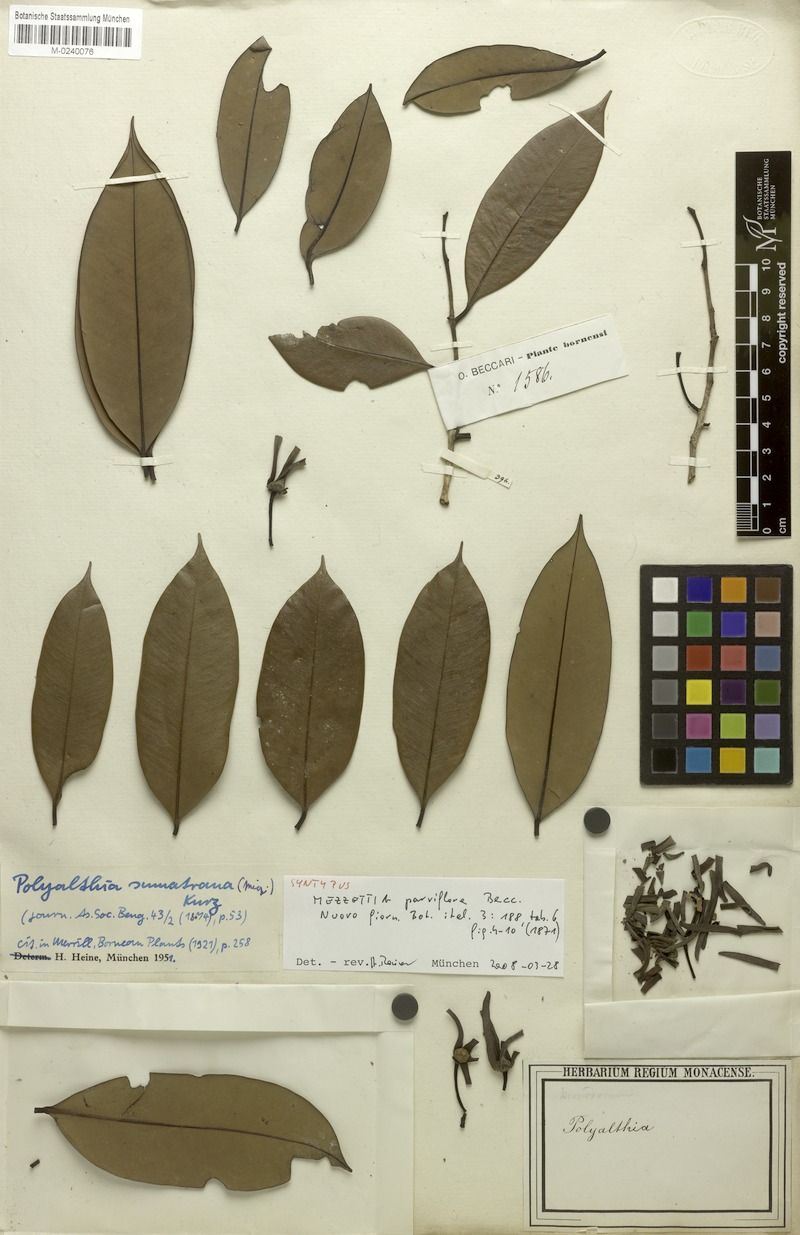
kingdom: Plantae
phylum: Tracheophyta
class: Magnoliopsida
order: Magnoliales
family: Annonaceae
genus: Mezzettia
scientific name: Mezzettia parviflora
